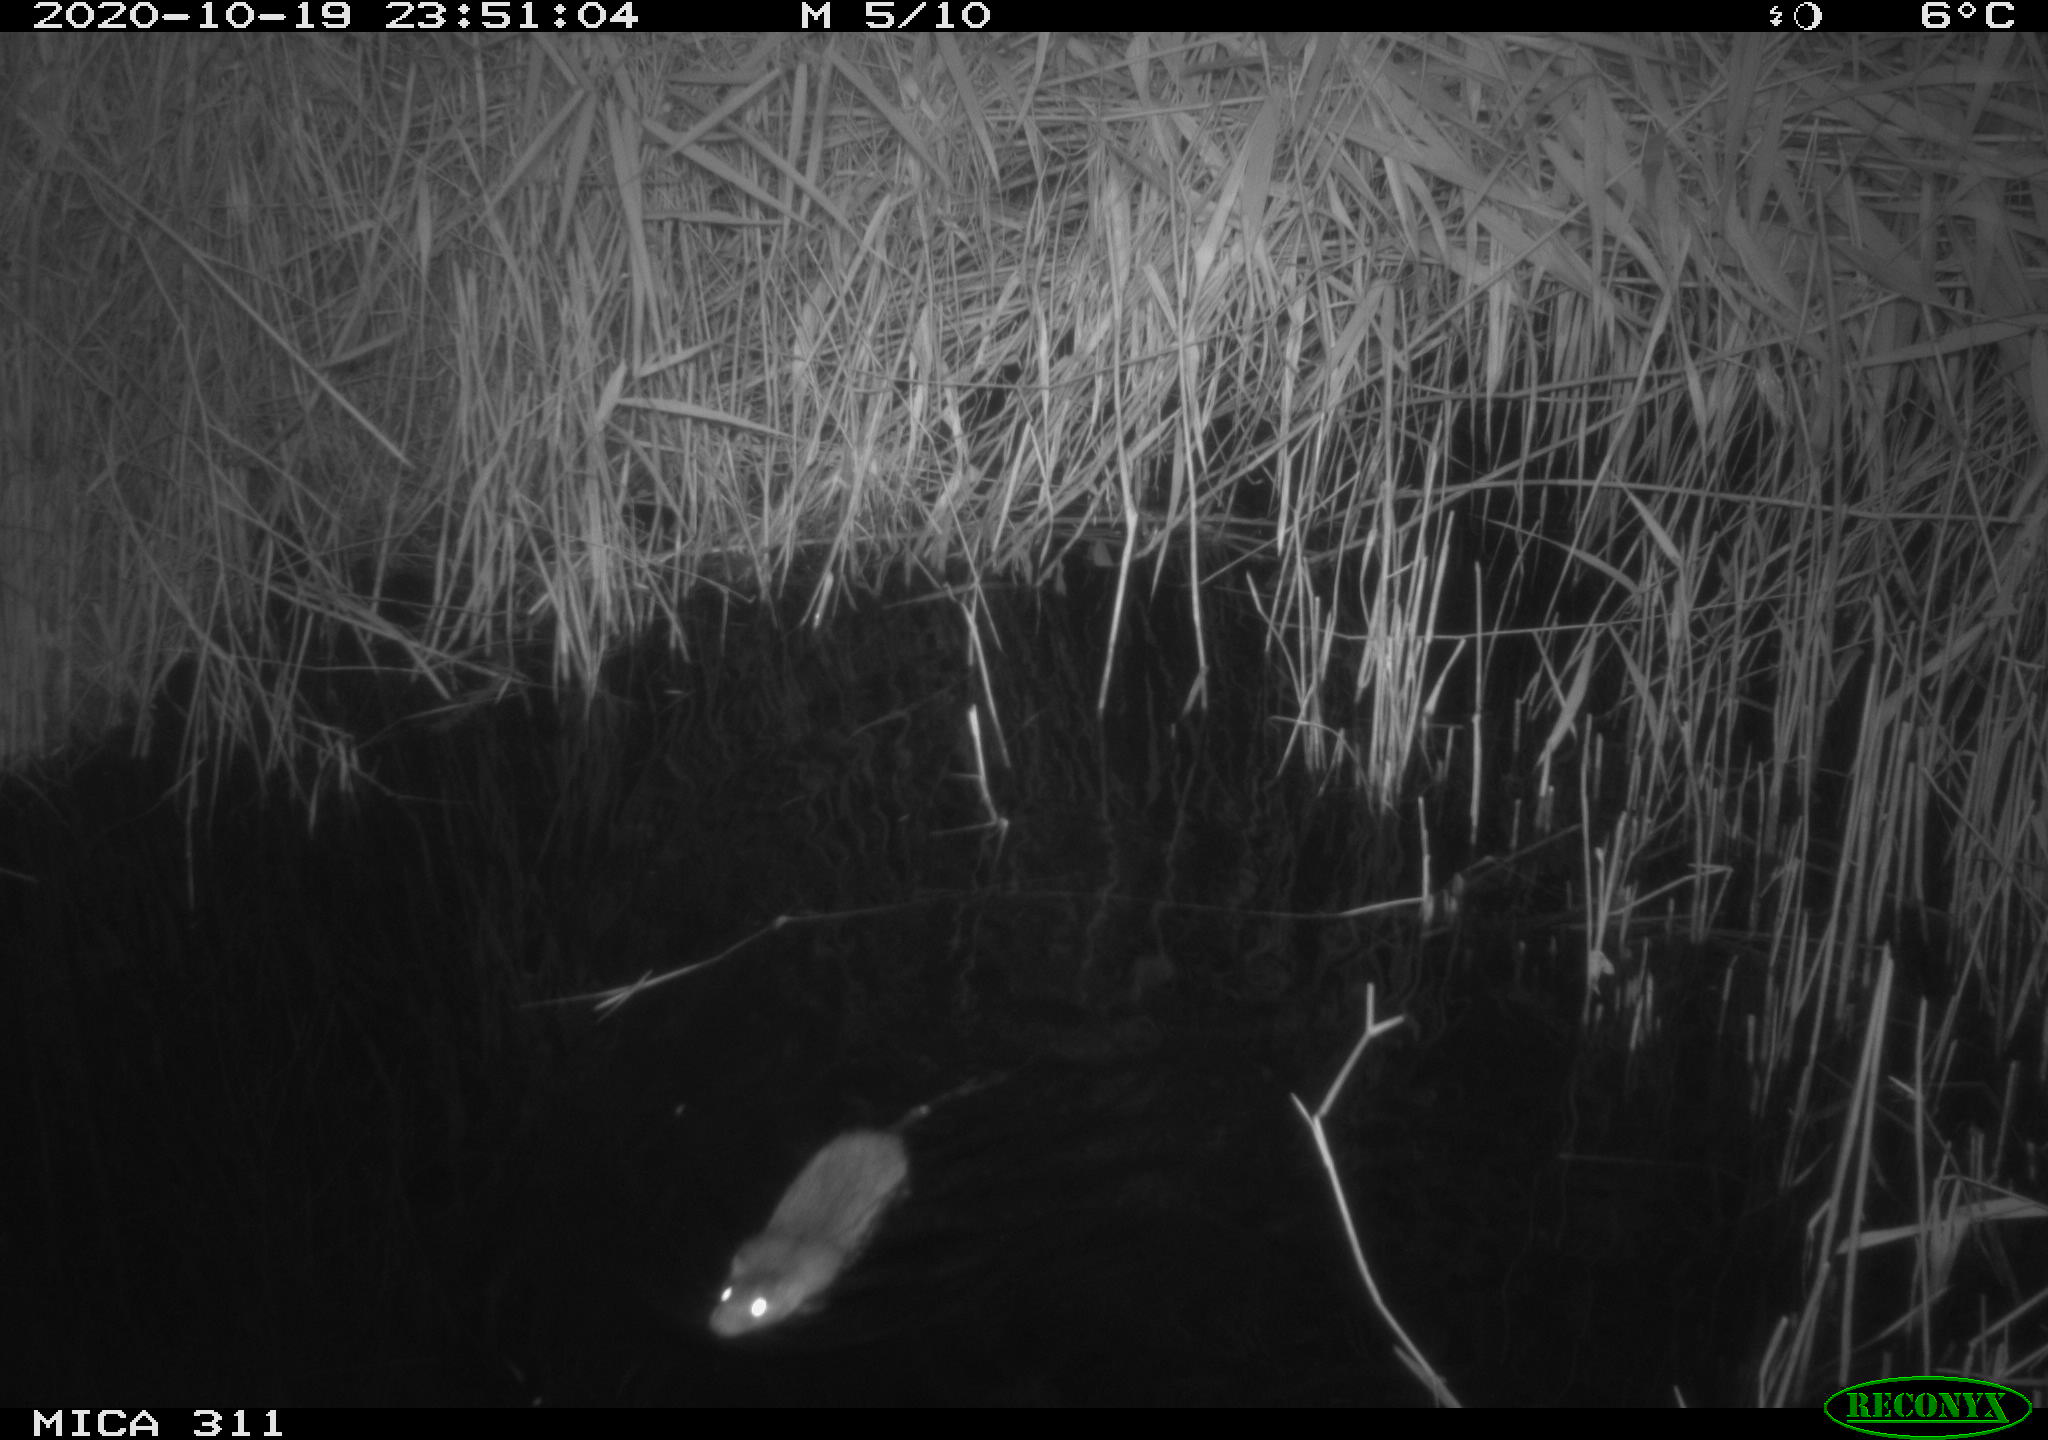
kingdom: Animalia
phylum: Chordata
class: Mammalia
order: Rodentia
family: Cricetidae
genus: Ondatra
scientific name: Ondatra zibethicus
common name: Muskrat
